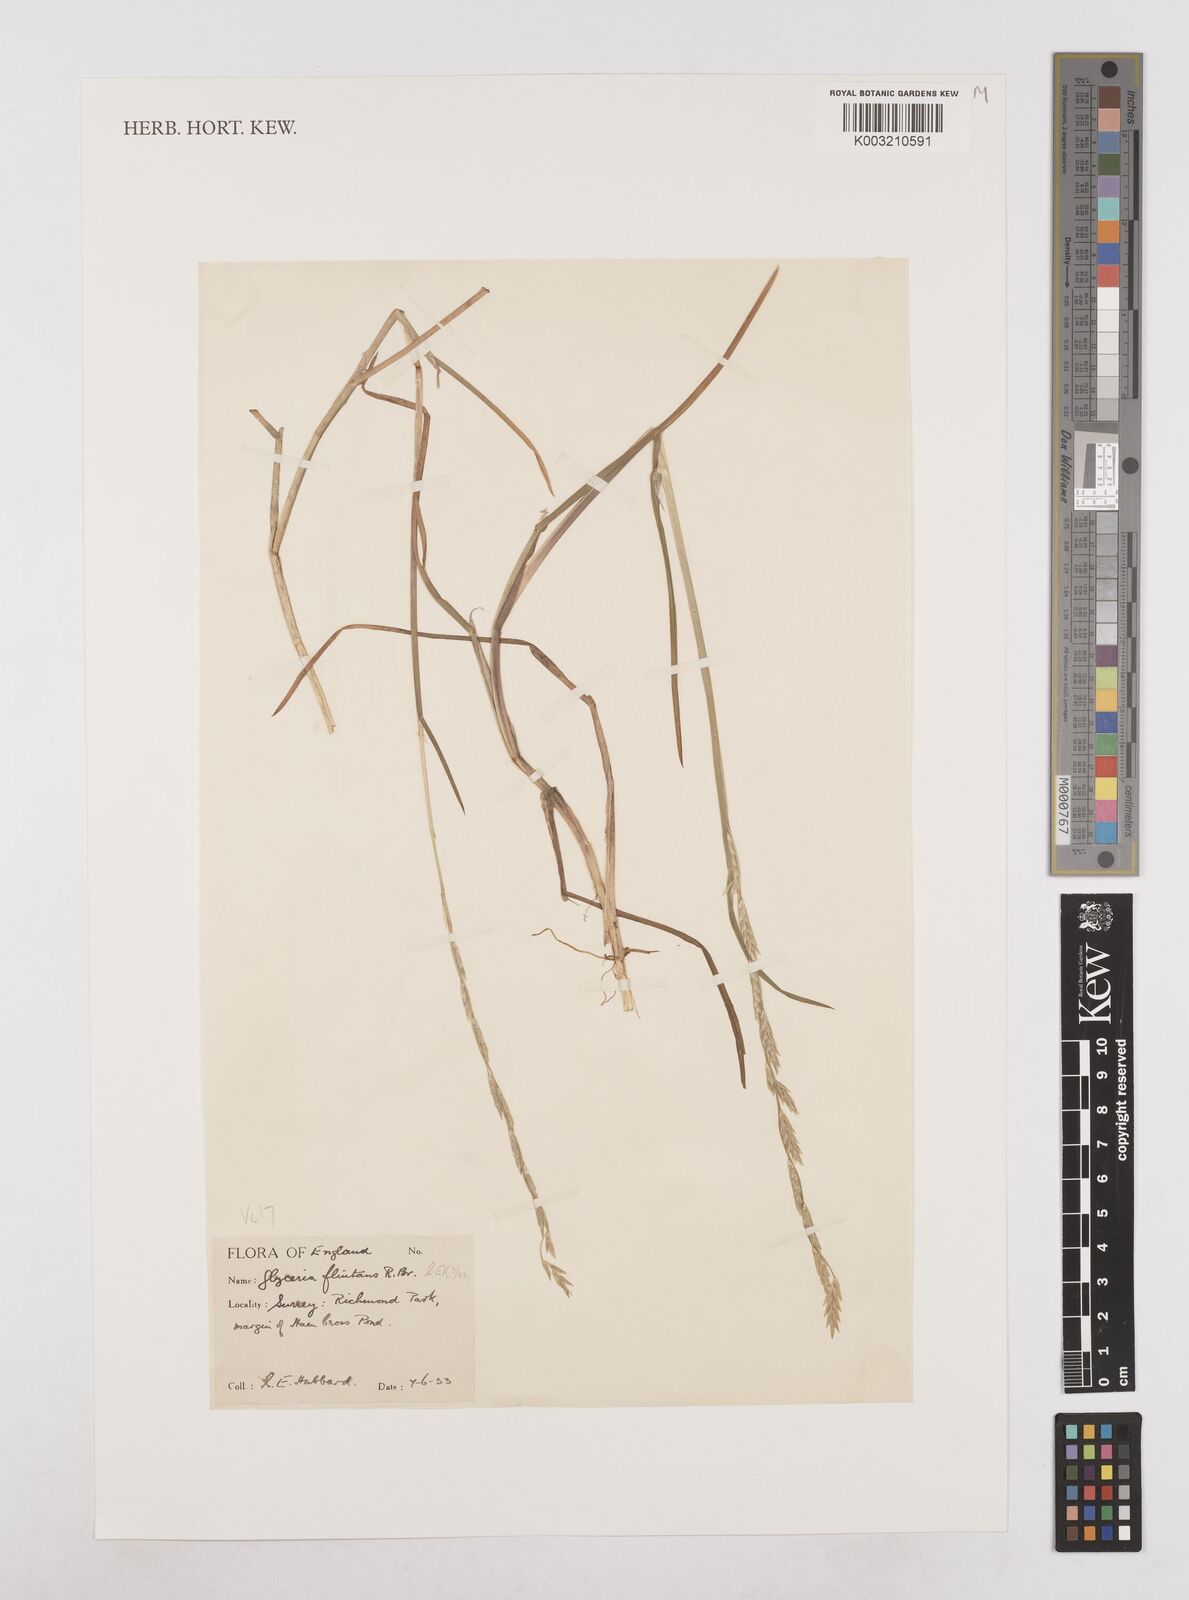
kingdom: Plantae
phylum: Tracheophyta
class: Liliopsida
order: Poales
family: Poaceae
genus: Glyceria
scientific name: Glyceria fluitans
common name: Floating sweet-grass
